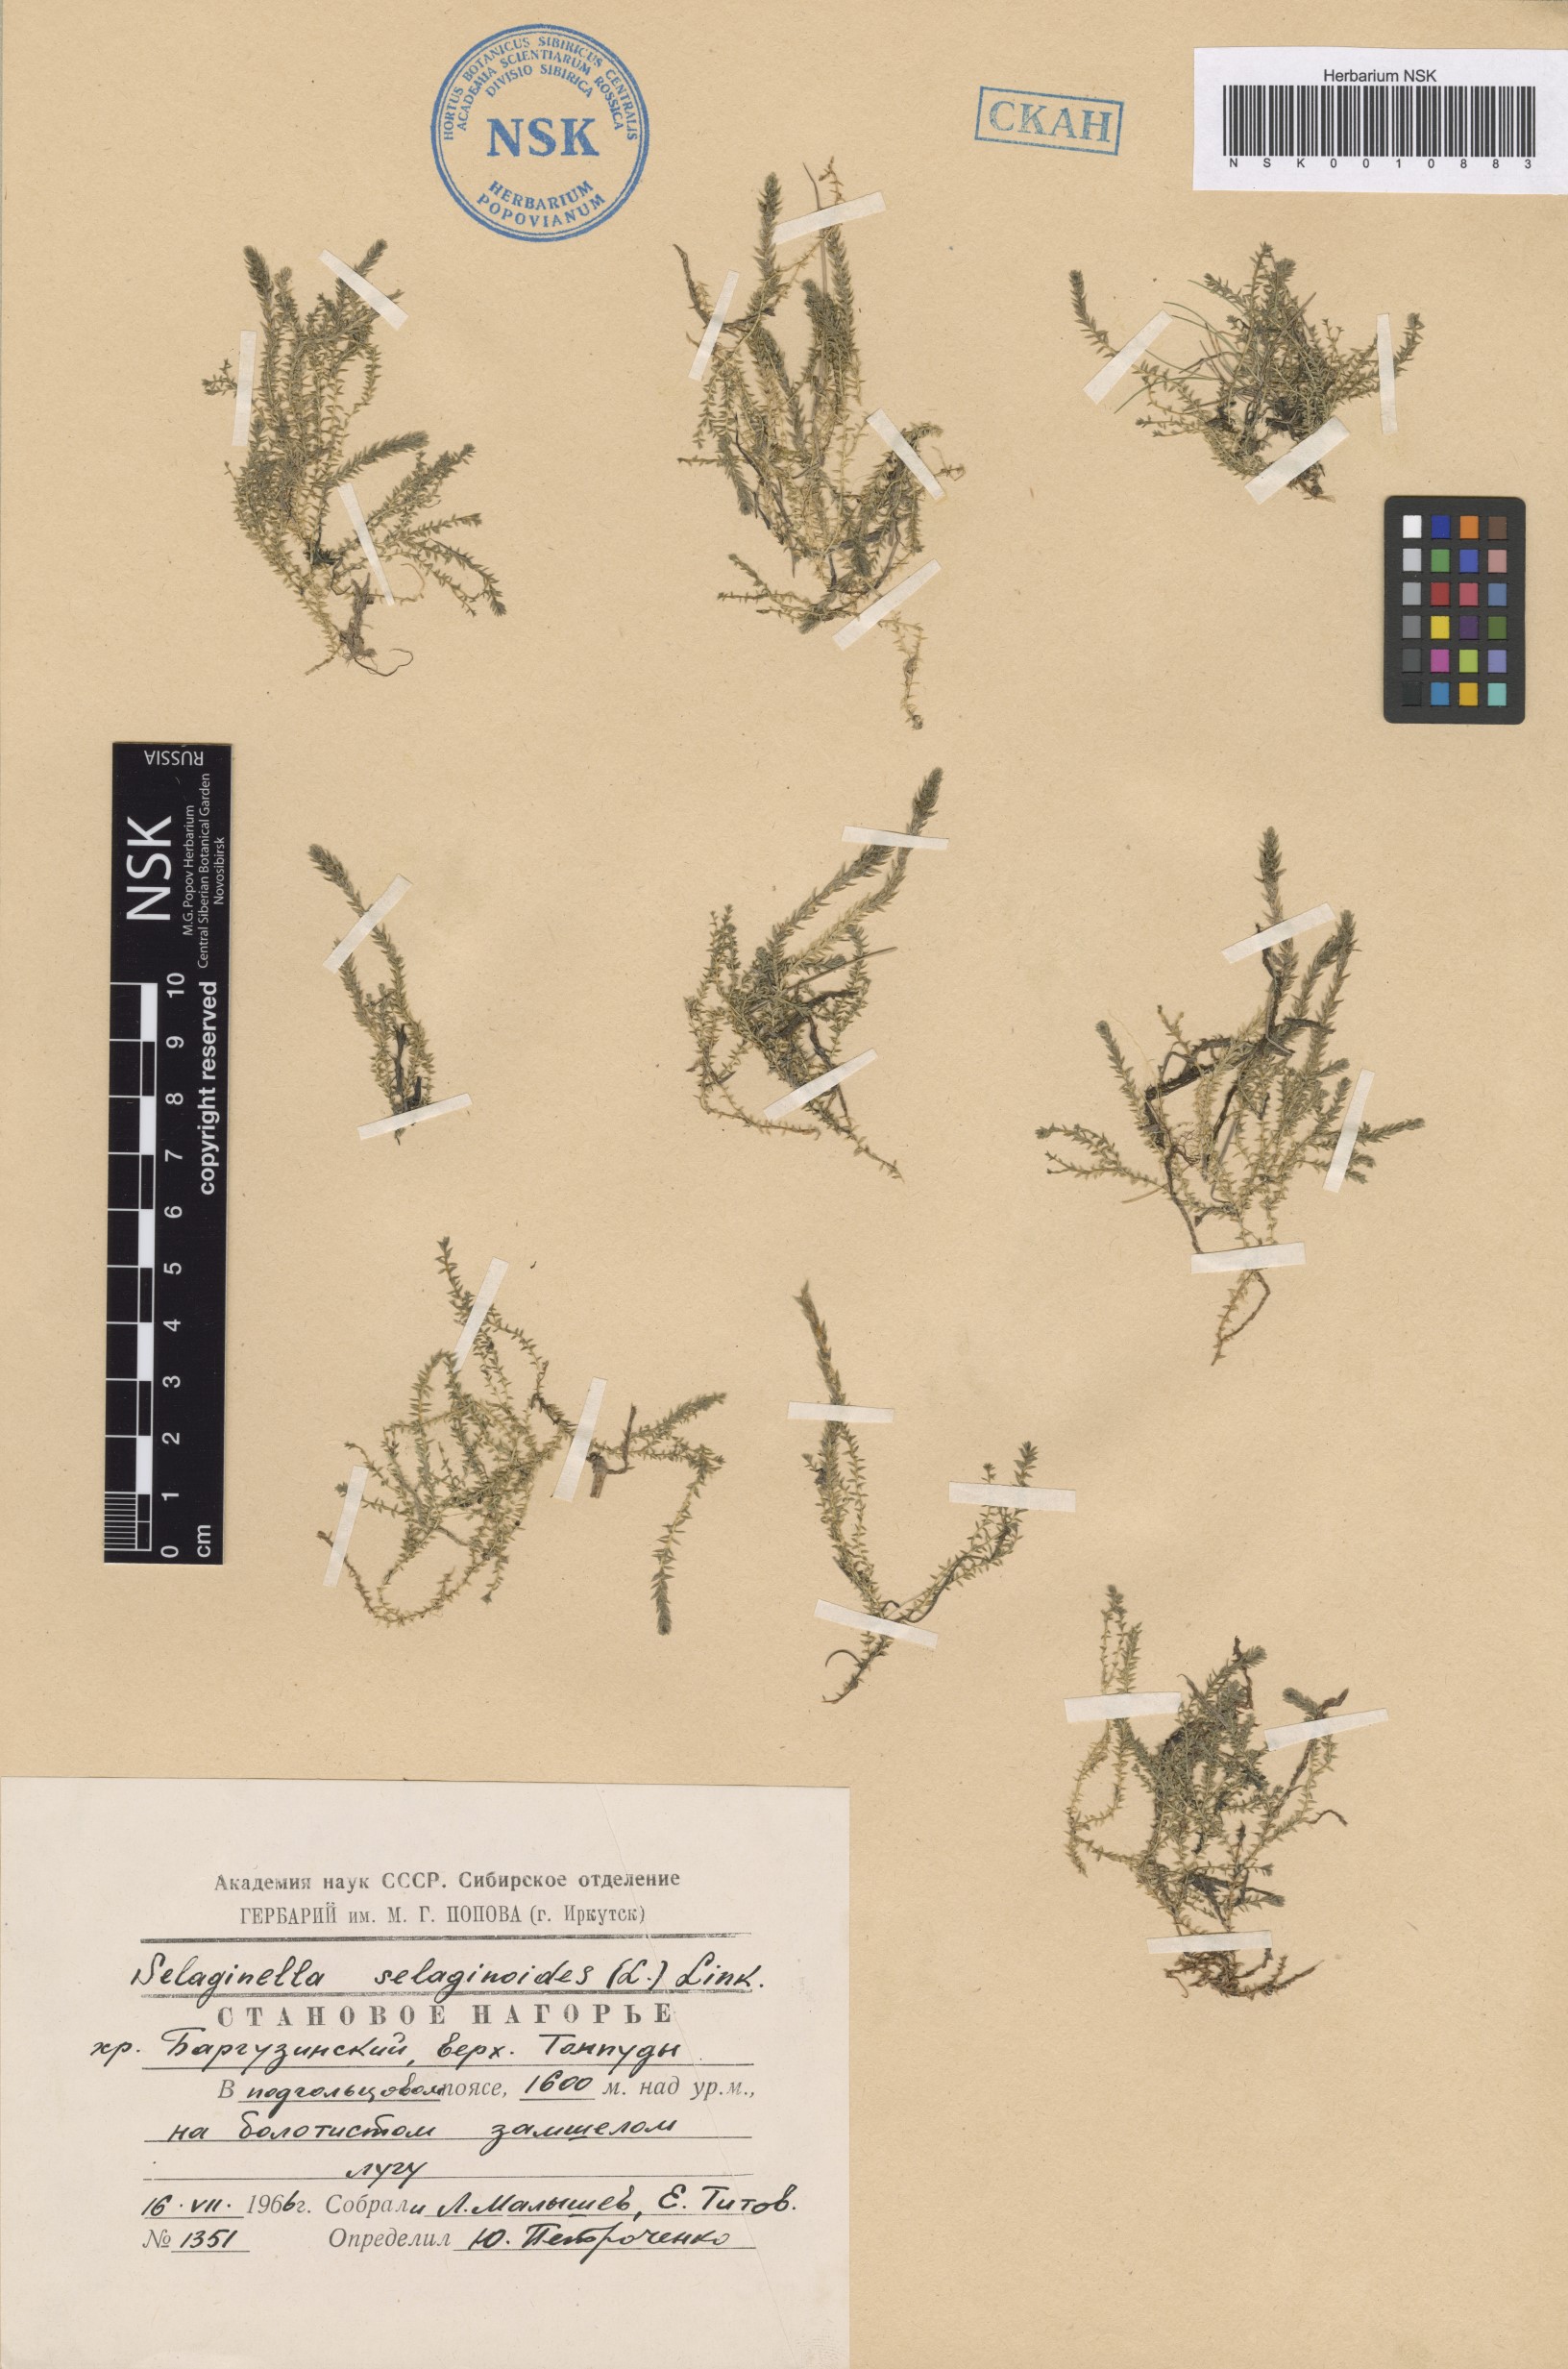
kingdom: Plantae
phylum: Tracheophyta
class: Lycopodiopsida
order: Selaginellales
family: Selaginellaceae
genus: Selaginella
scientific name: Selaginella selaginoides
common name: Prickly mountain-moss
